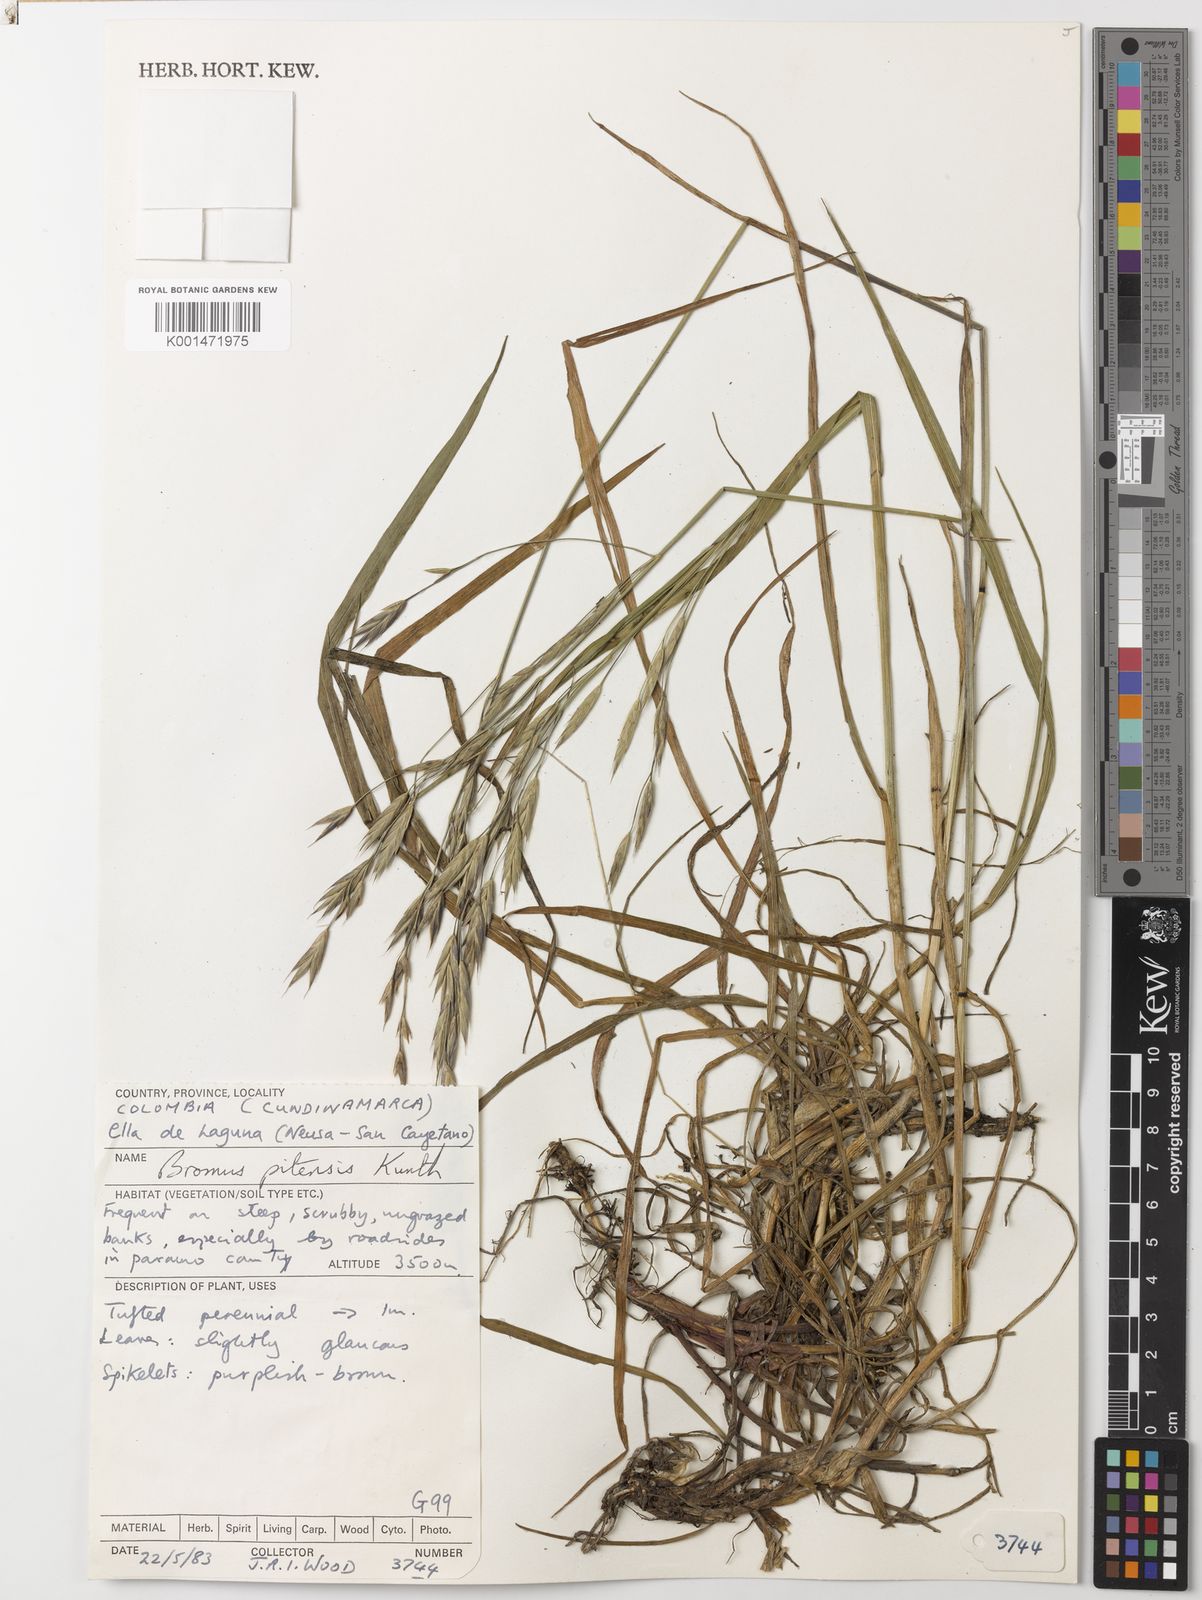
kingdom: Plantae
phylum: Tracheophyta
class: Liliopsida
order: Poales
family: Poaceae
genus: Bromus
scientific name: Bromus pitensis
